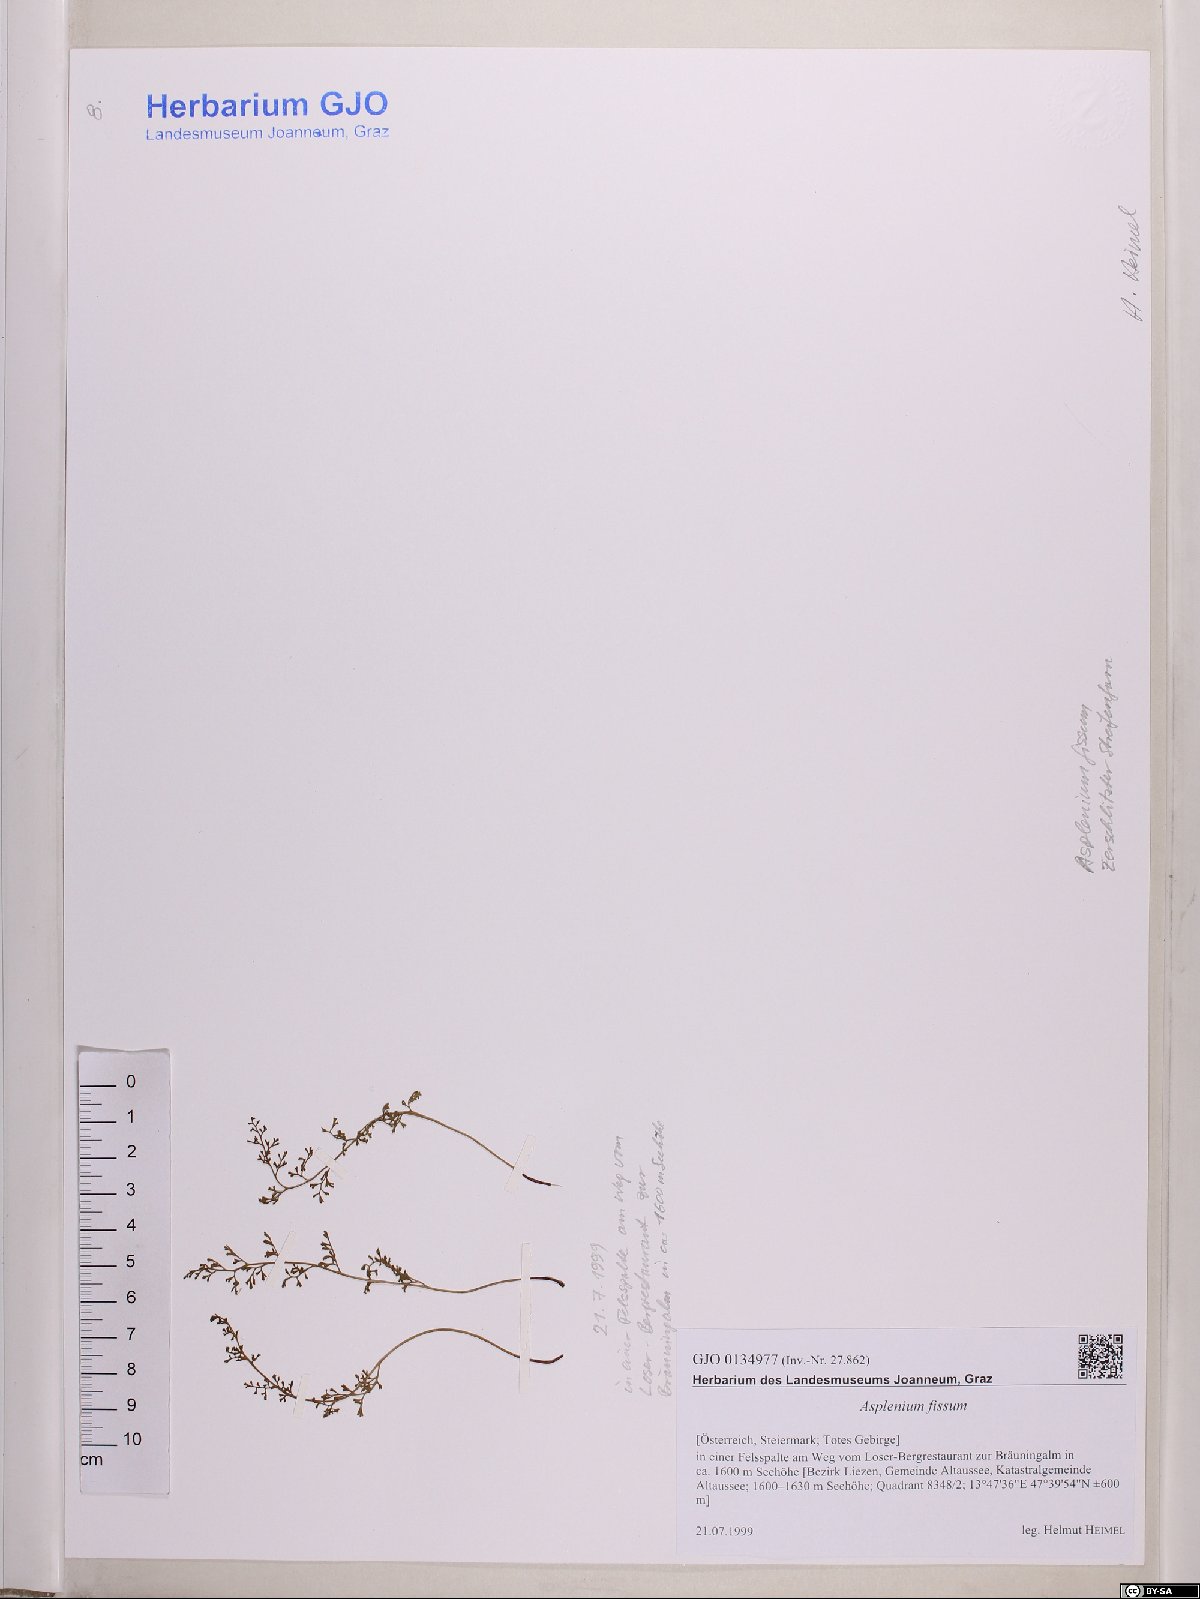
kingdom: Plantae
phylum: Tracheophyta
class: Polypodiopsida
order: Polypodiales
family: Aspleniaceae
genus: Asplenium
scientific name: Asplenium fissum
